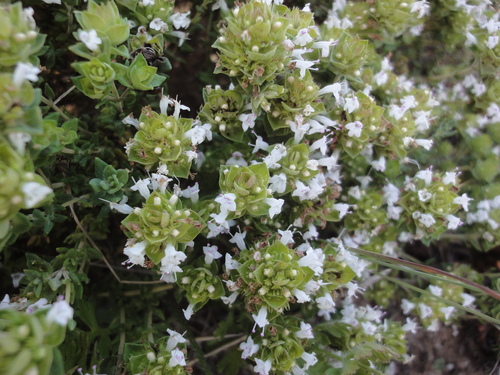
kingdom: Plantae
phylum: Tracheophyta
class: Magnoliopsida
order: Lamiales
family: Lamiaceae
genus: Thymus
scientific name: Thymus camphoratus
